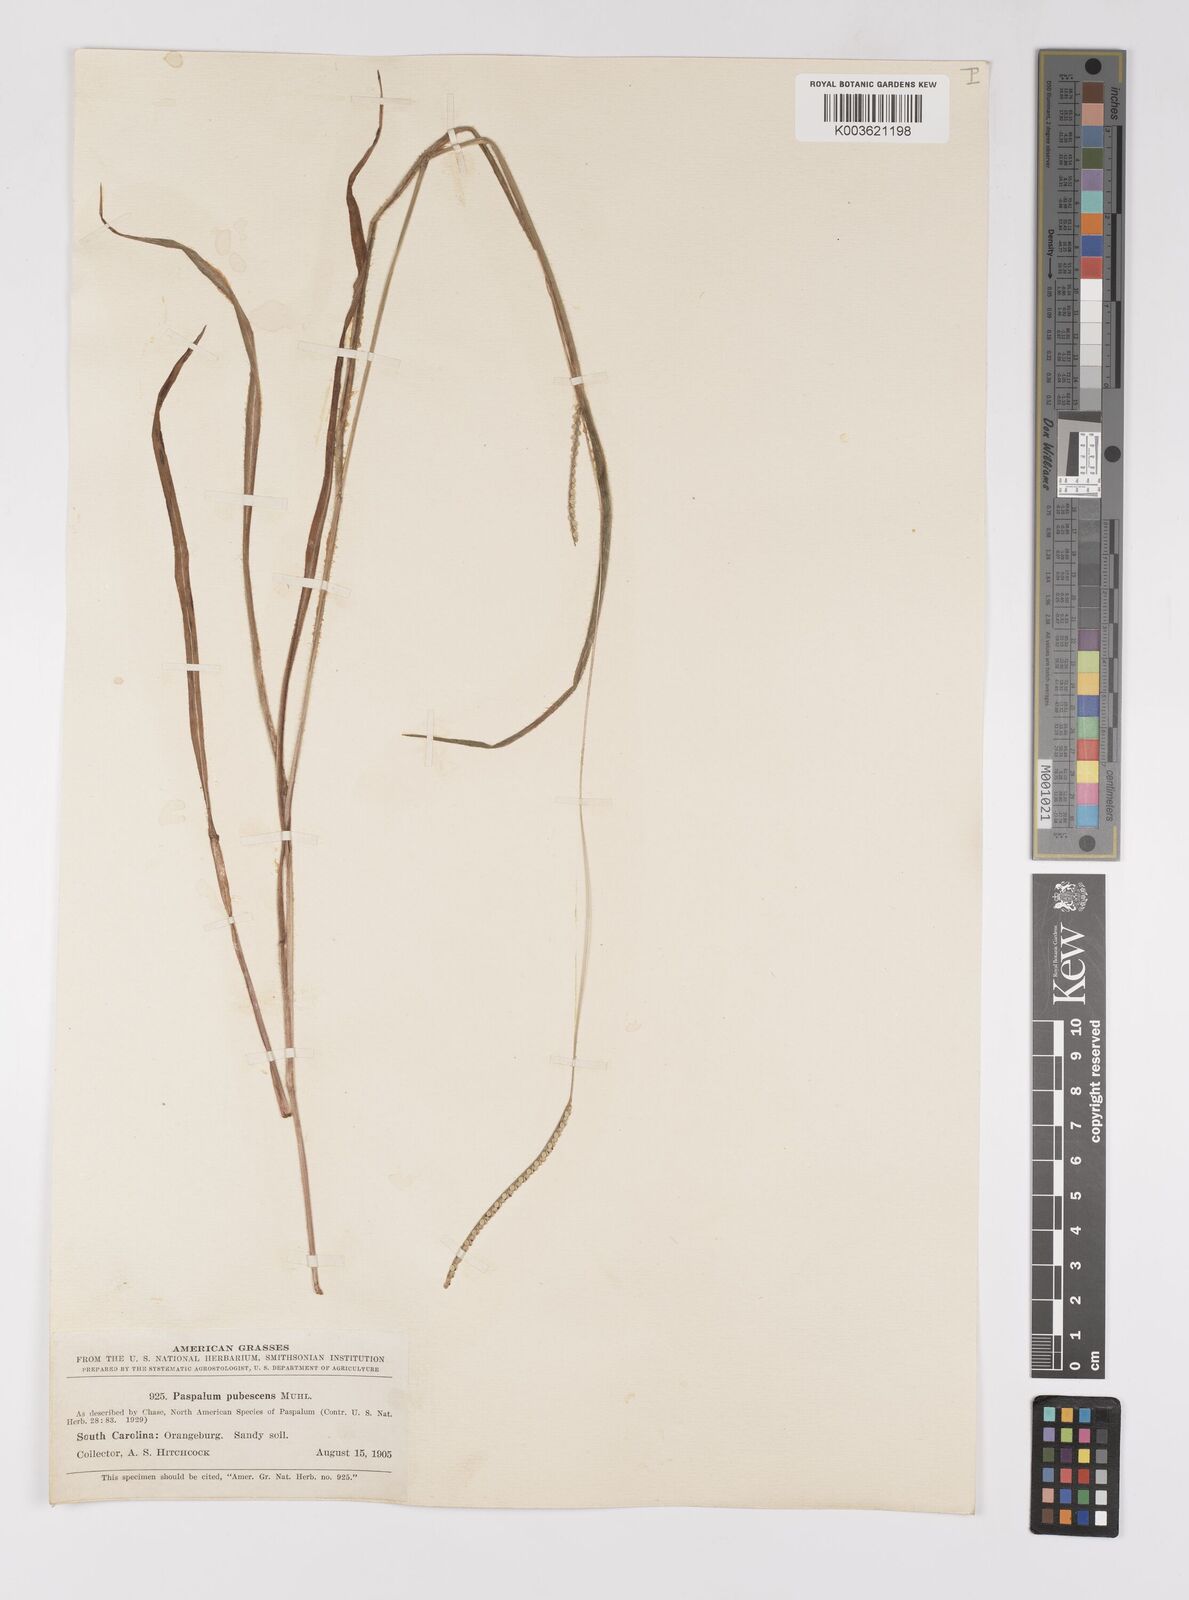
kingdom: Plantae
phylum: Tracheophyta
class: Liliopsida
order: Poales
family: Poaceae
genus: Paspalum
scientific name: Paspalum setaceum
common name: Slender paspalum
